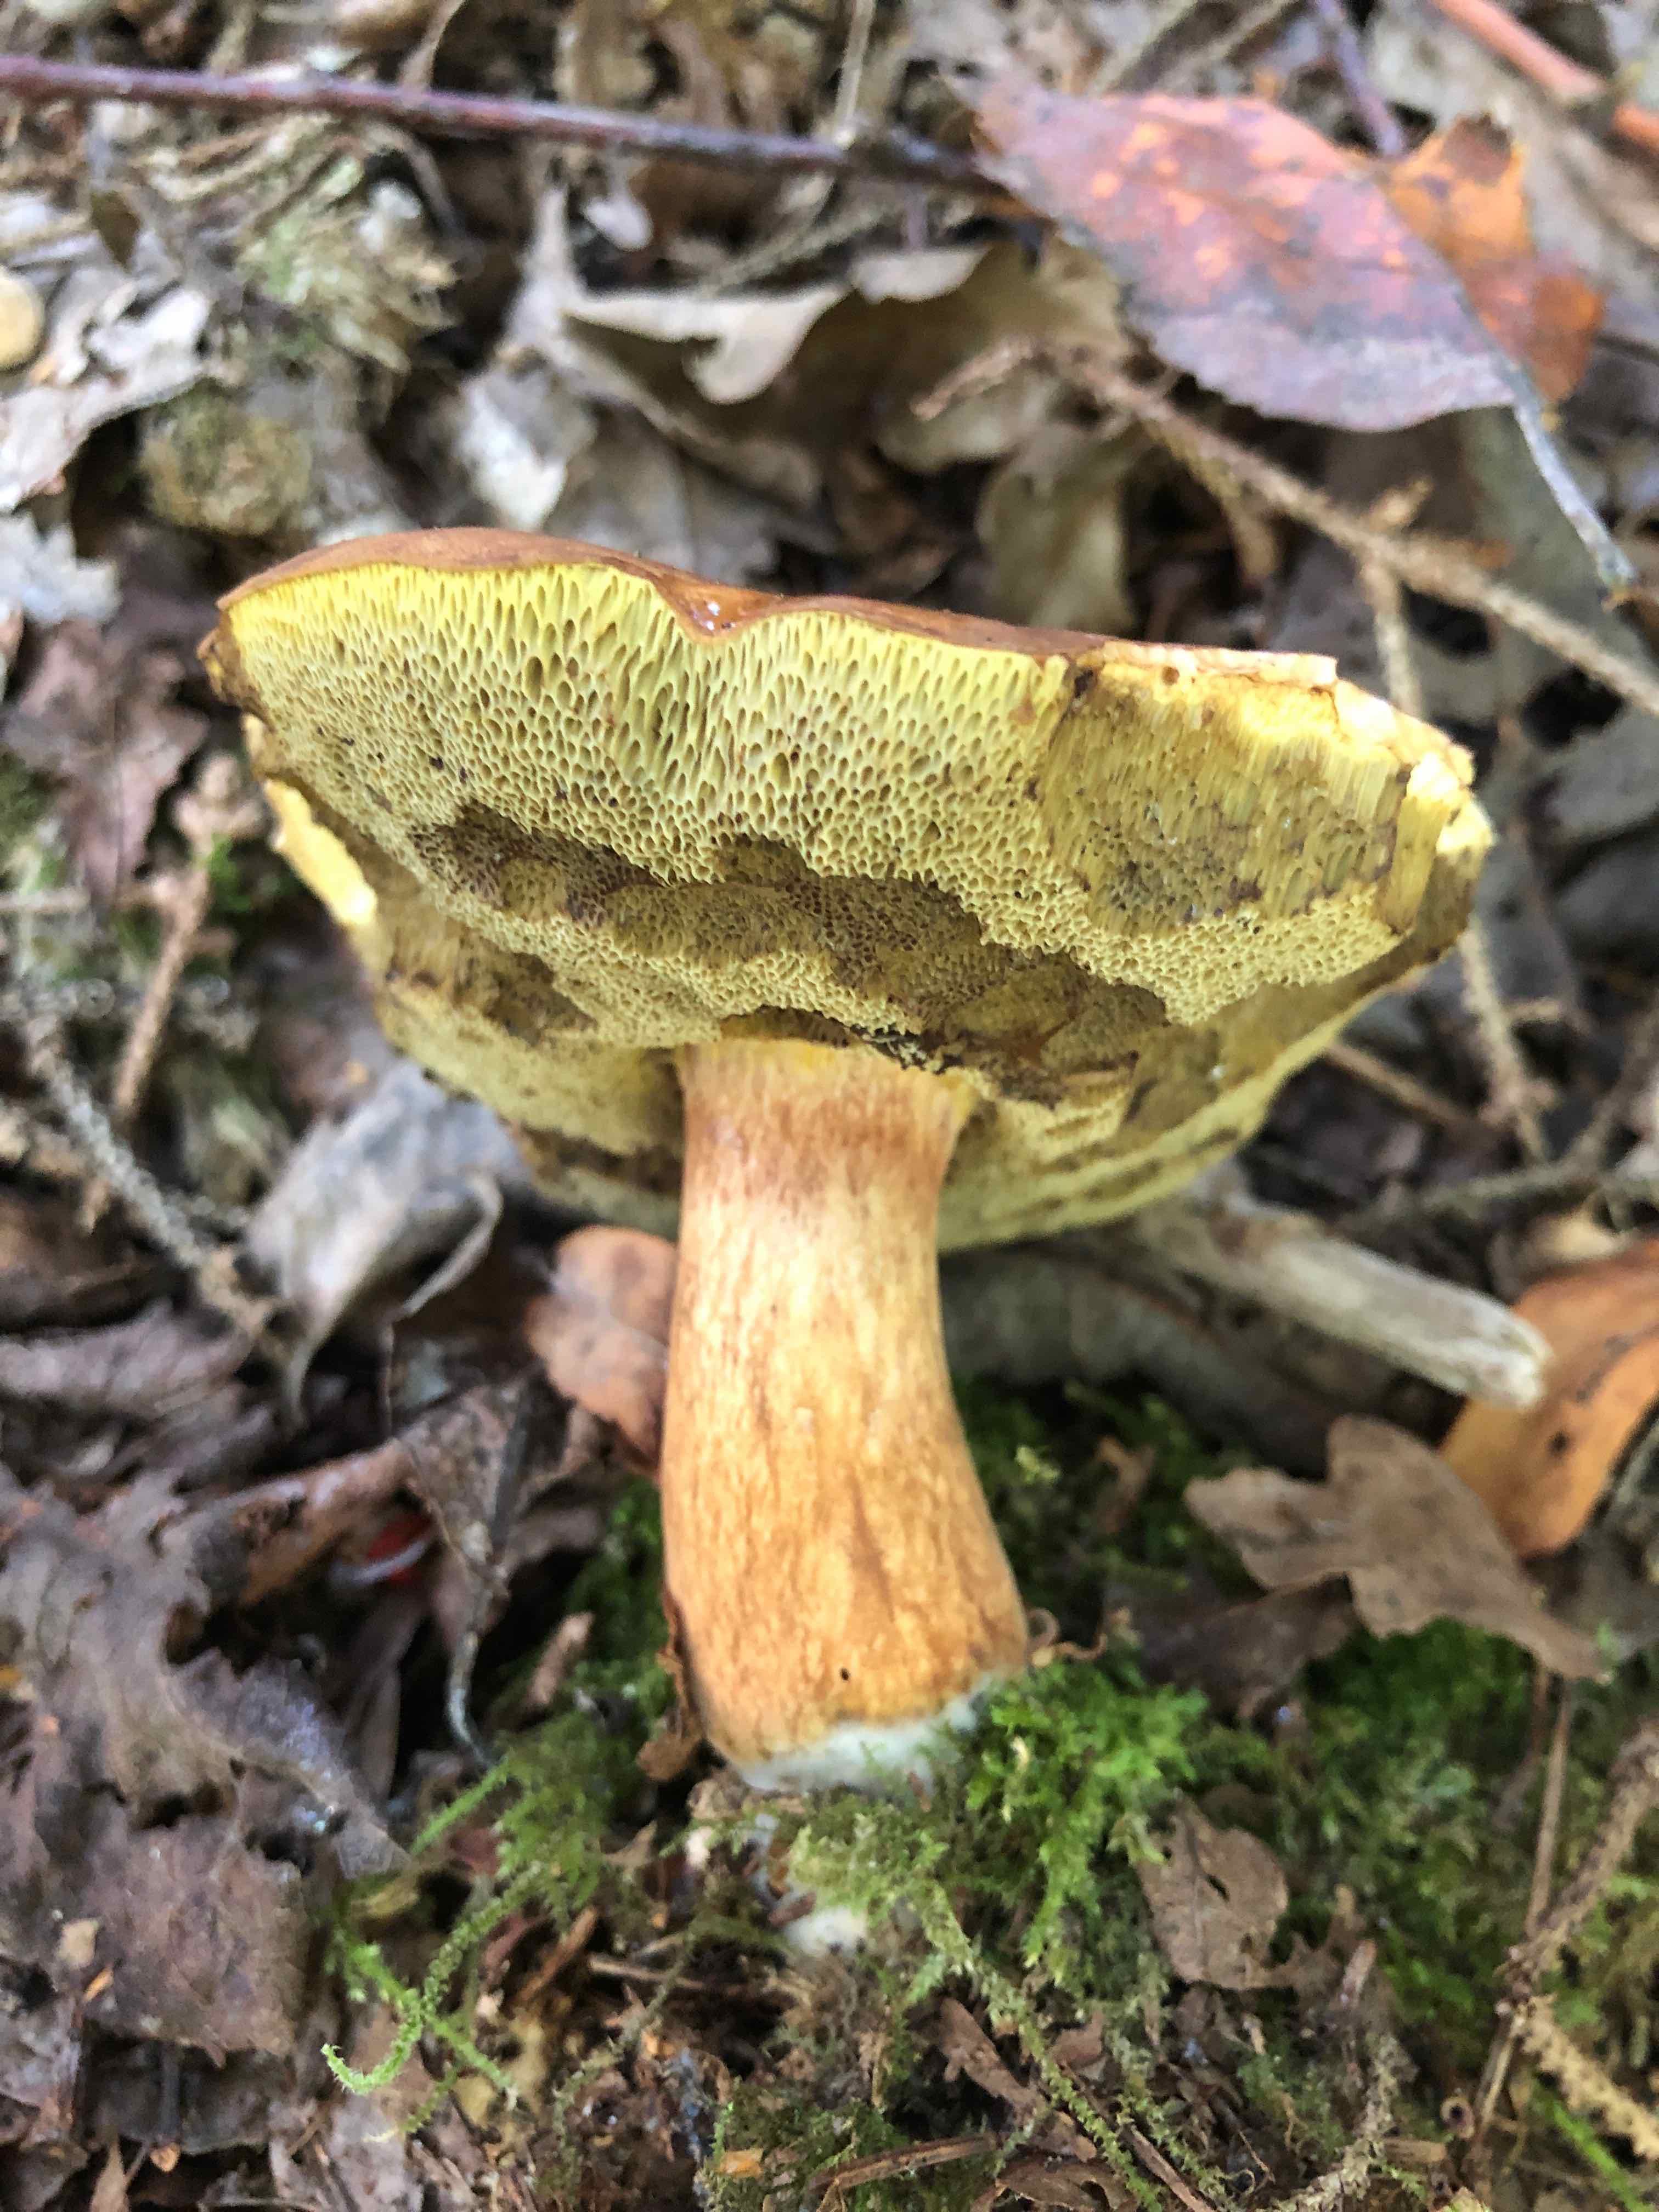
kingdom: Fungi
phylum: Basidiomycota
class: Agaricomycetes
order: Boletales
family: Boletaceae
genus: Imleria
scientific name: Imleria badia
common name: brunstokket rørhat
